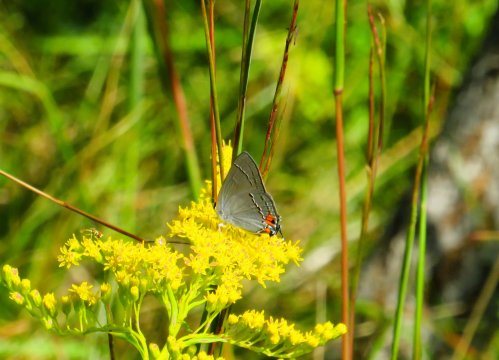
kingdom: Animalia
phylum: Arthropoda
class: Insecta
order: Lepidoptera
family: Lycaenidae
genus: Strymon
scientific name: Strymon melinus
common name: Gray Hairstreak
